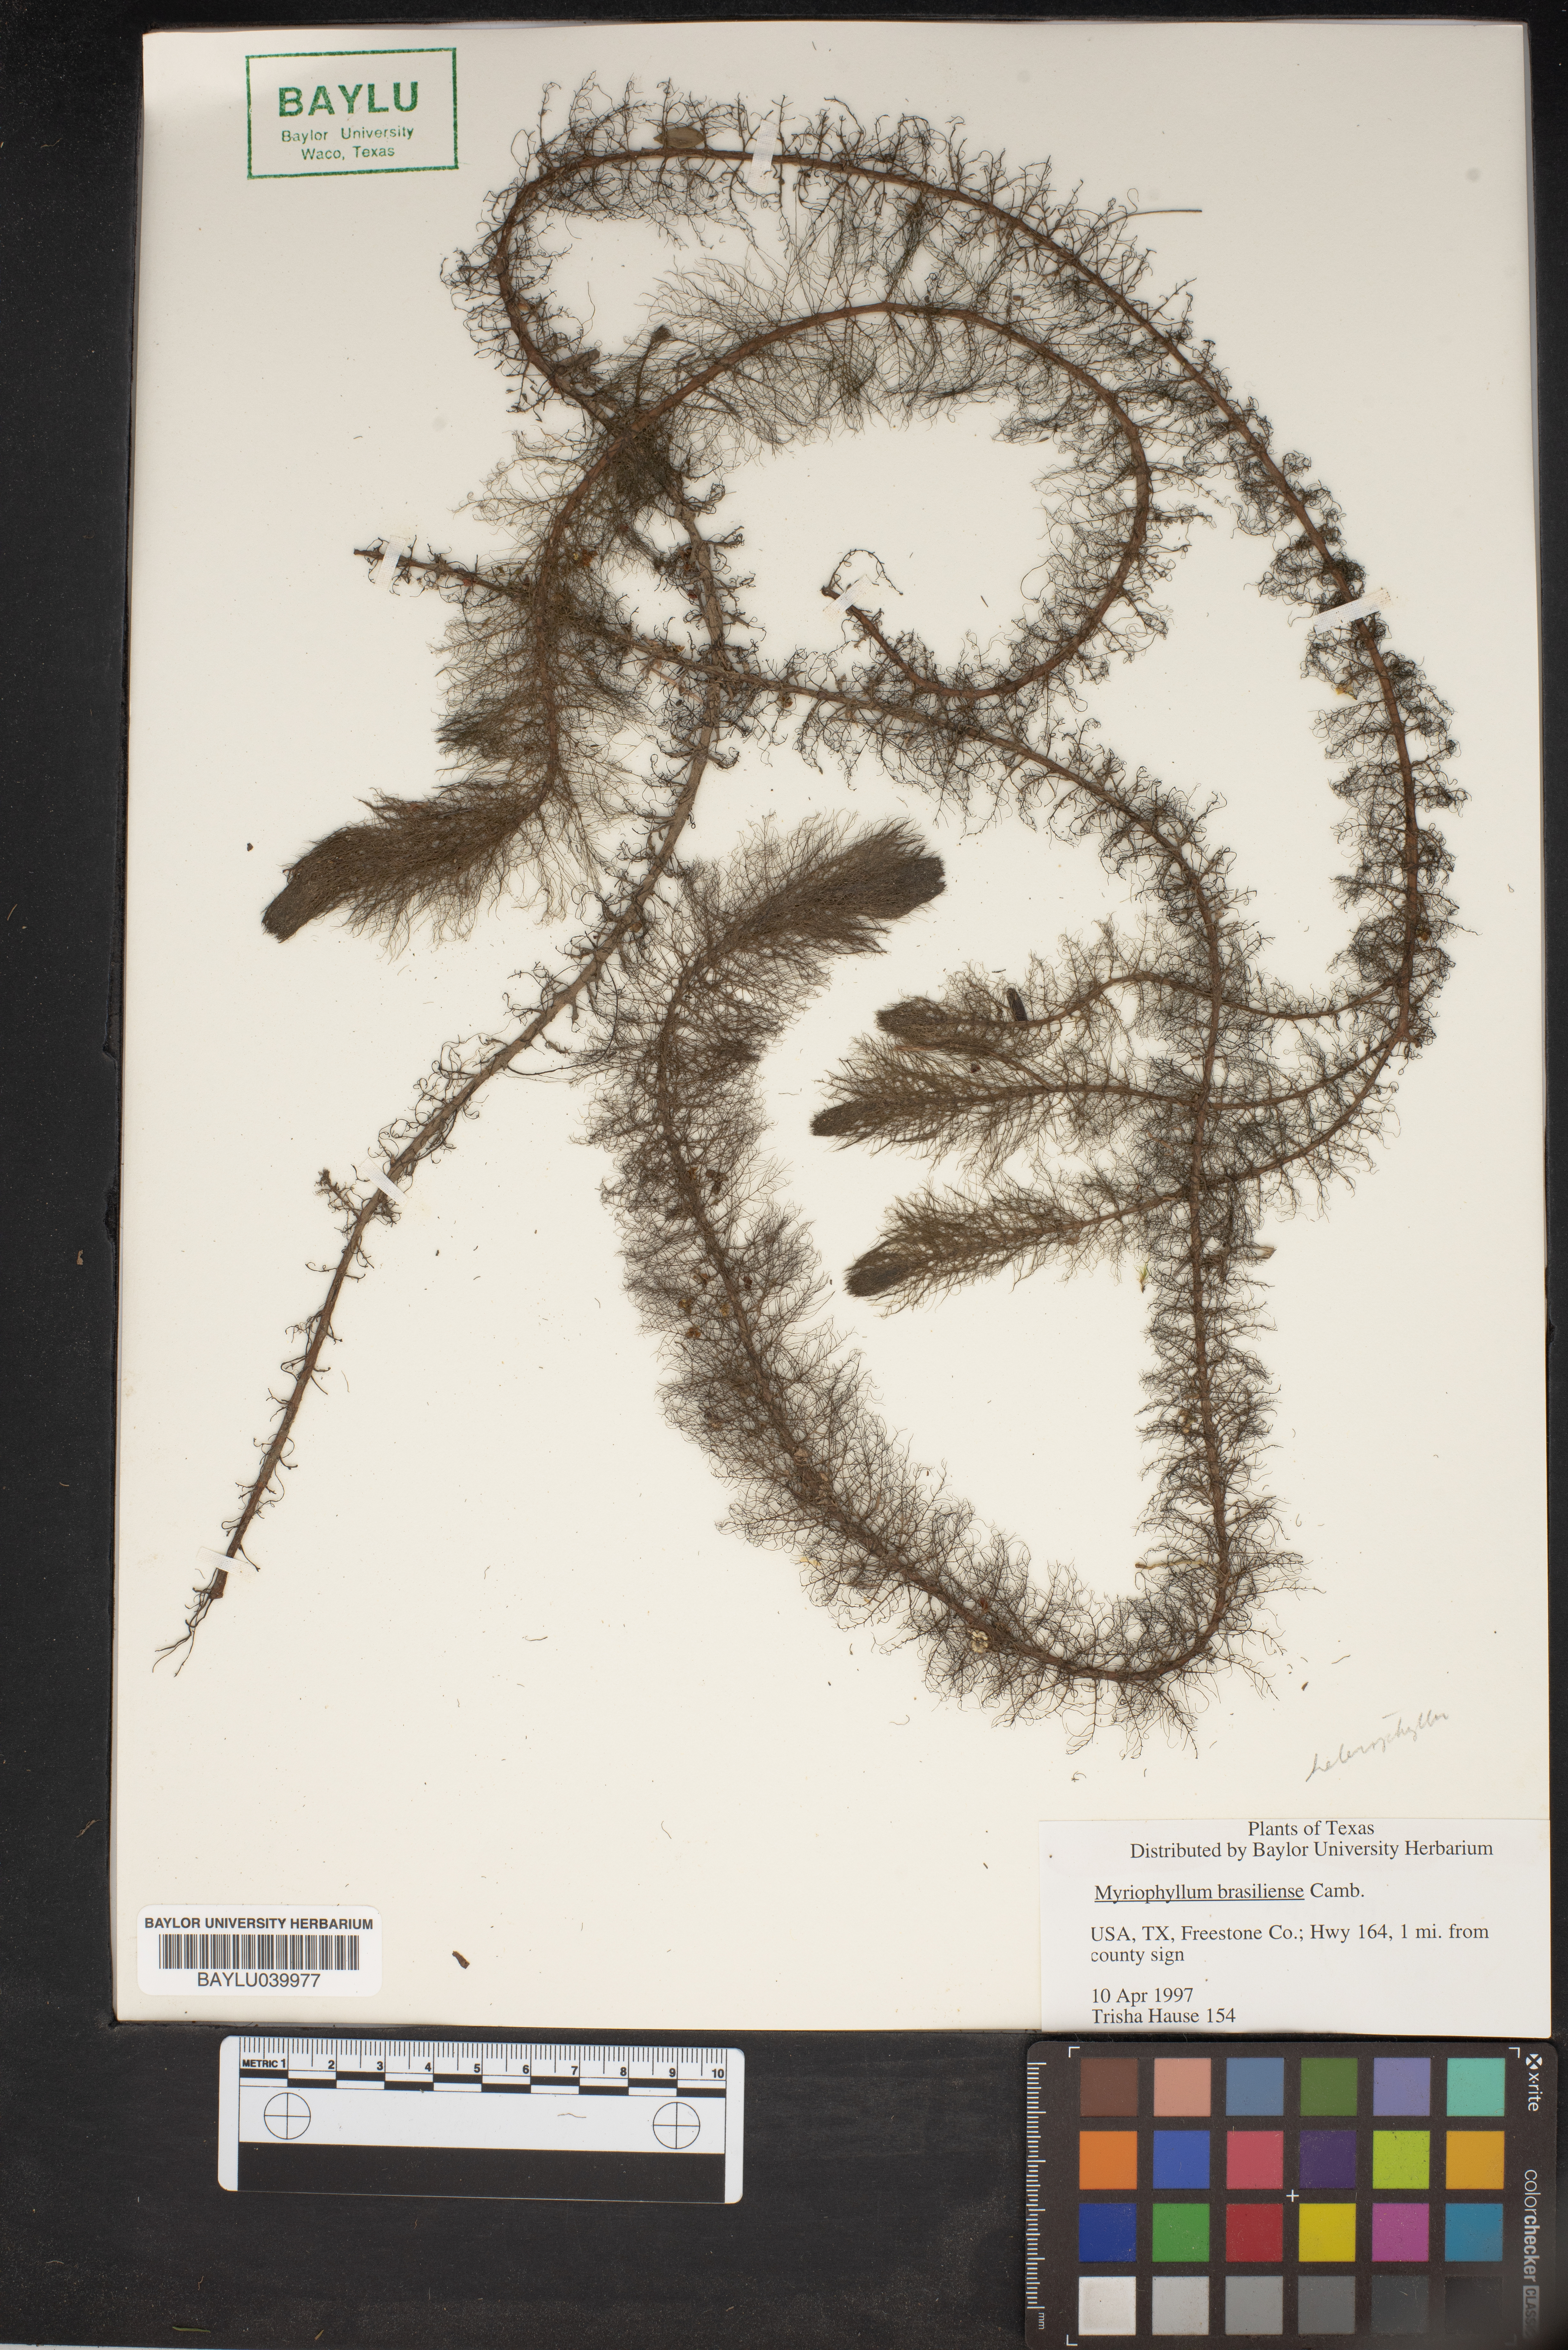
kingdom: Plantae
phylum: Tracheophyta
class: Magnoliopsida
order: Saxifragales
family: Haloragaceae
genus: Myriophyllum
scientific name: Myriophyllum aquaticum
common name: Parrot's feather
